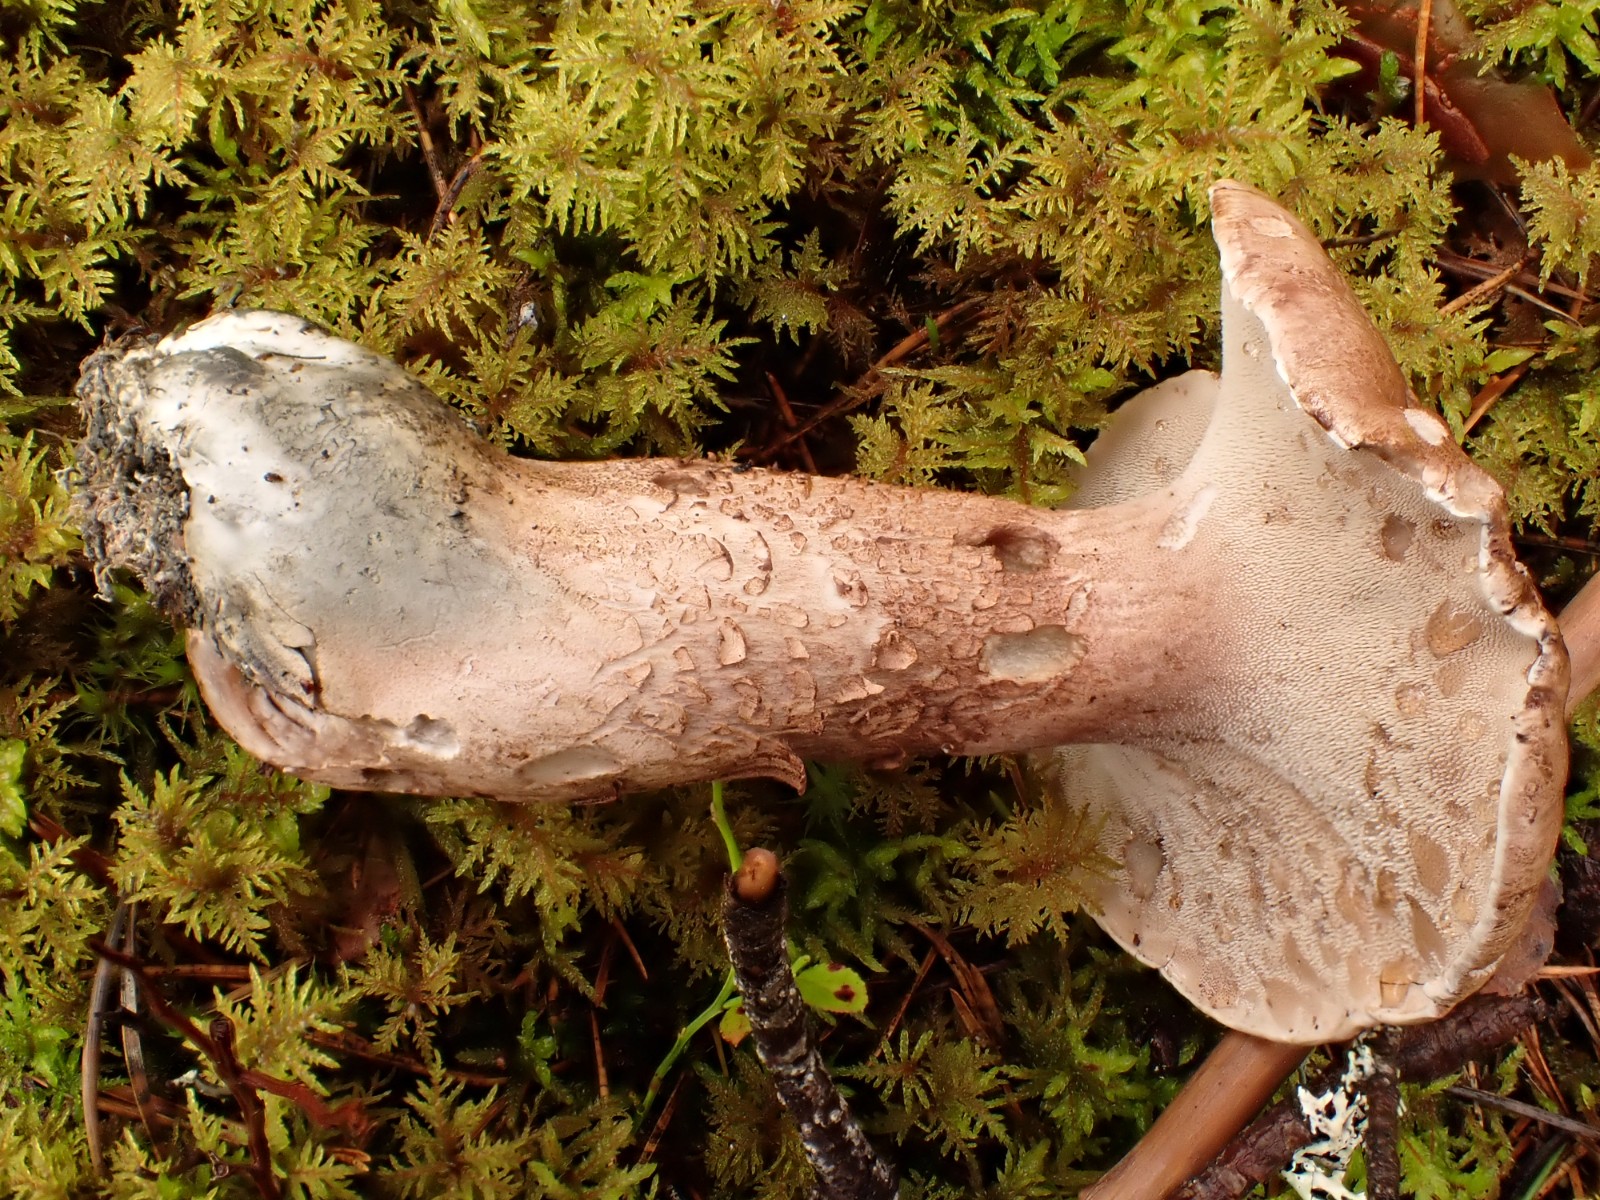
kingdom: Fungi
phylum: Basidiomycota
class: Agaricomycetes
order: Thelephorales
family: Bankeraceae
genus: Hydnellum
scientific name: Hydnellum scabrosum
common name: blåfodet korkpigsvamp
